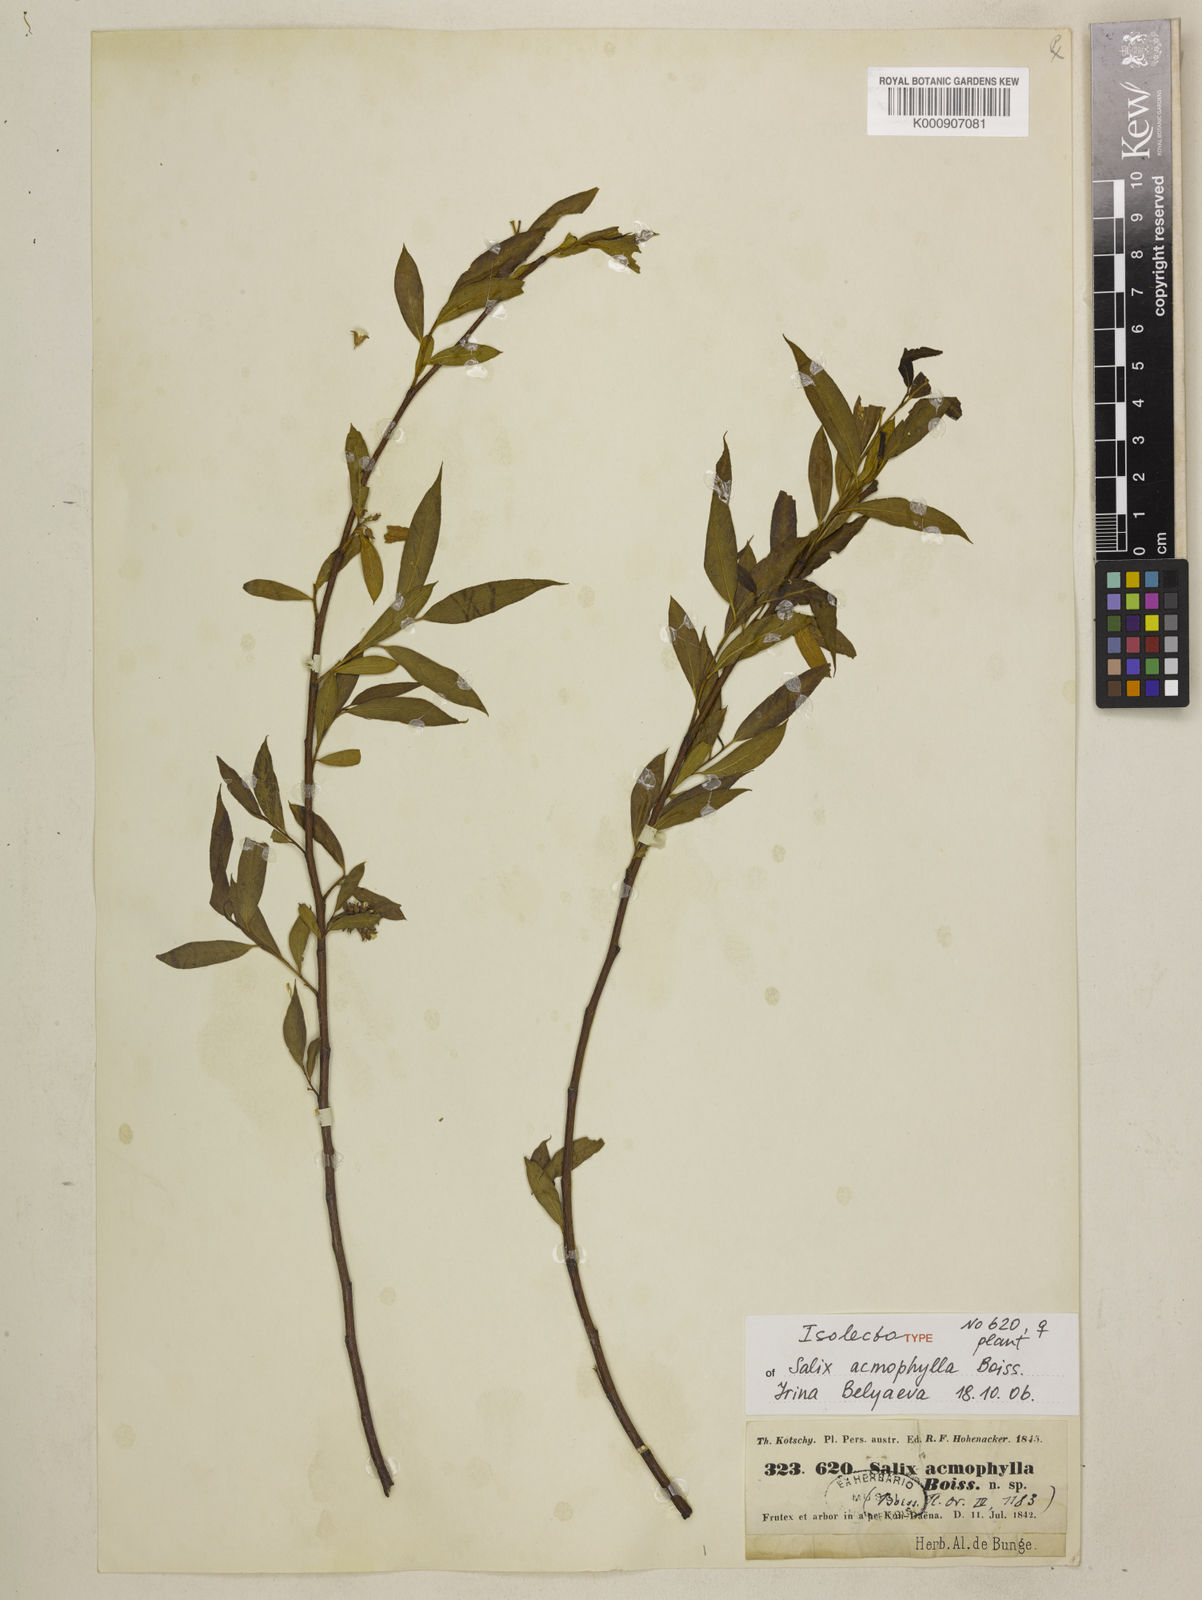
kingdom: Plantae
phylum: Tracheophyta
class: Magnoliopsida
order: Malpighiales
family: Salicaceae
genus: Salix
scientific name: Salix acmophylla
